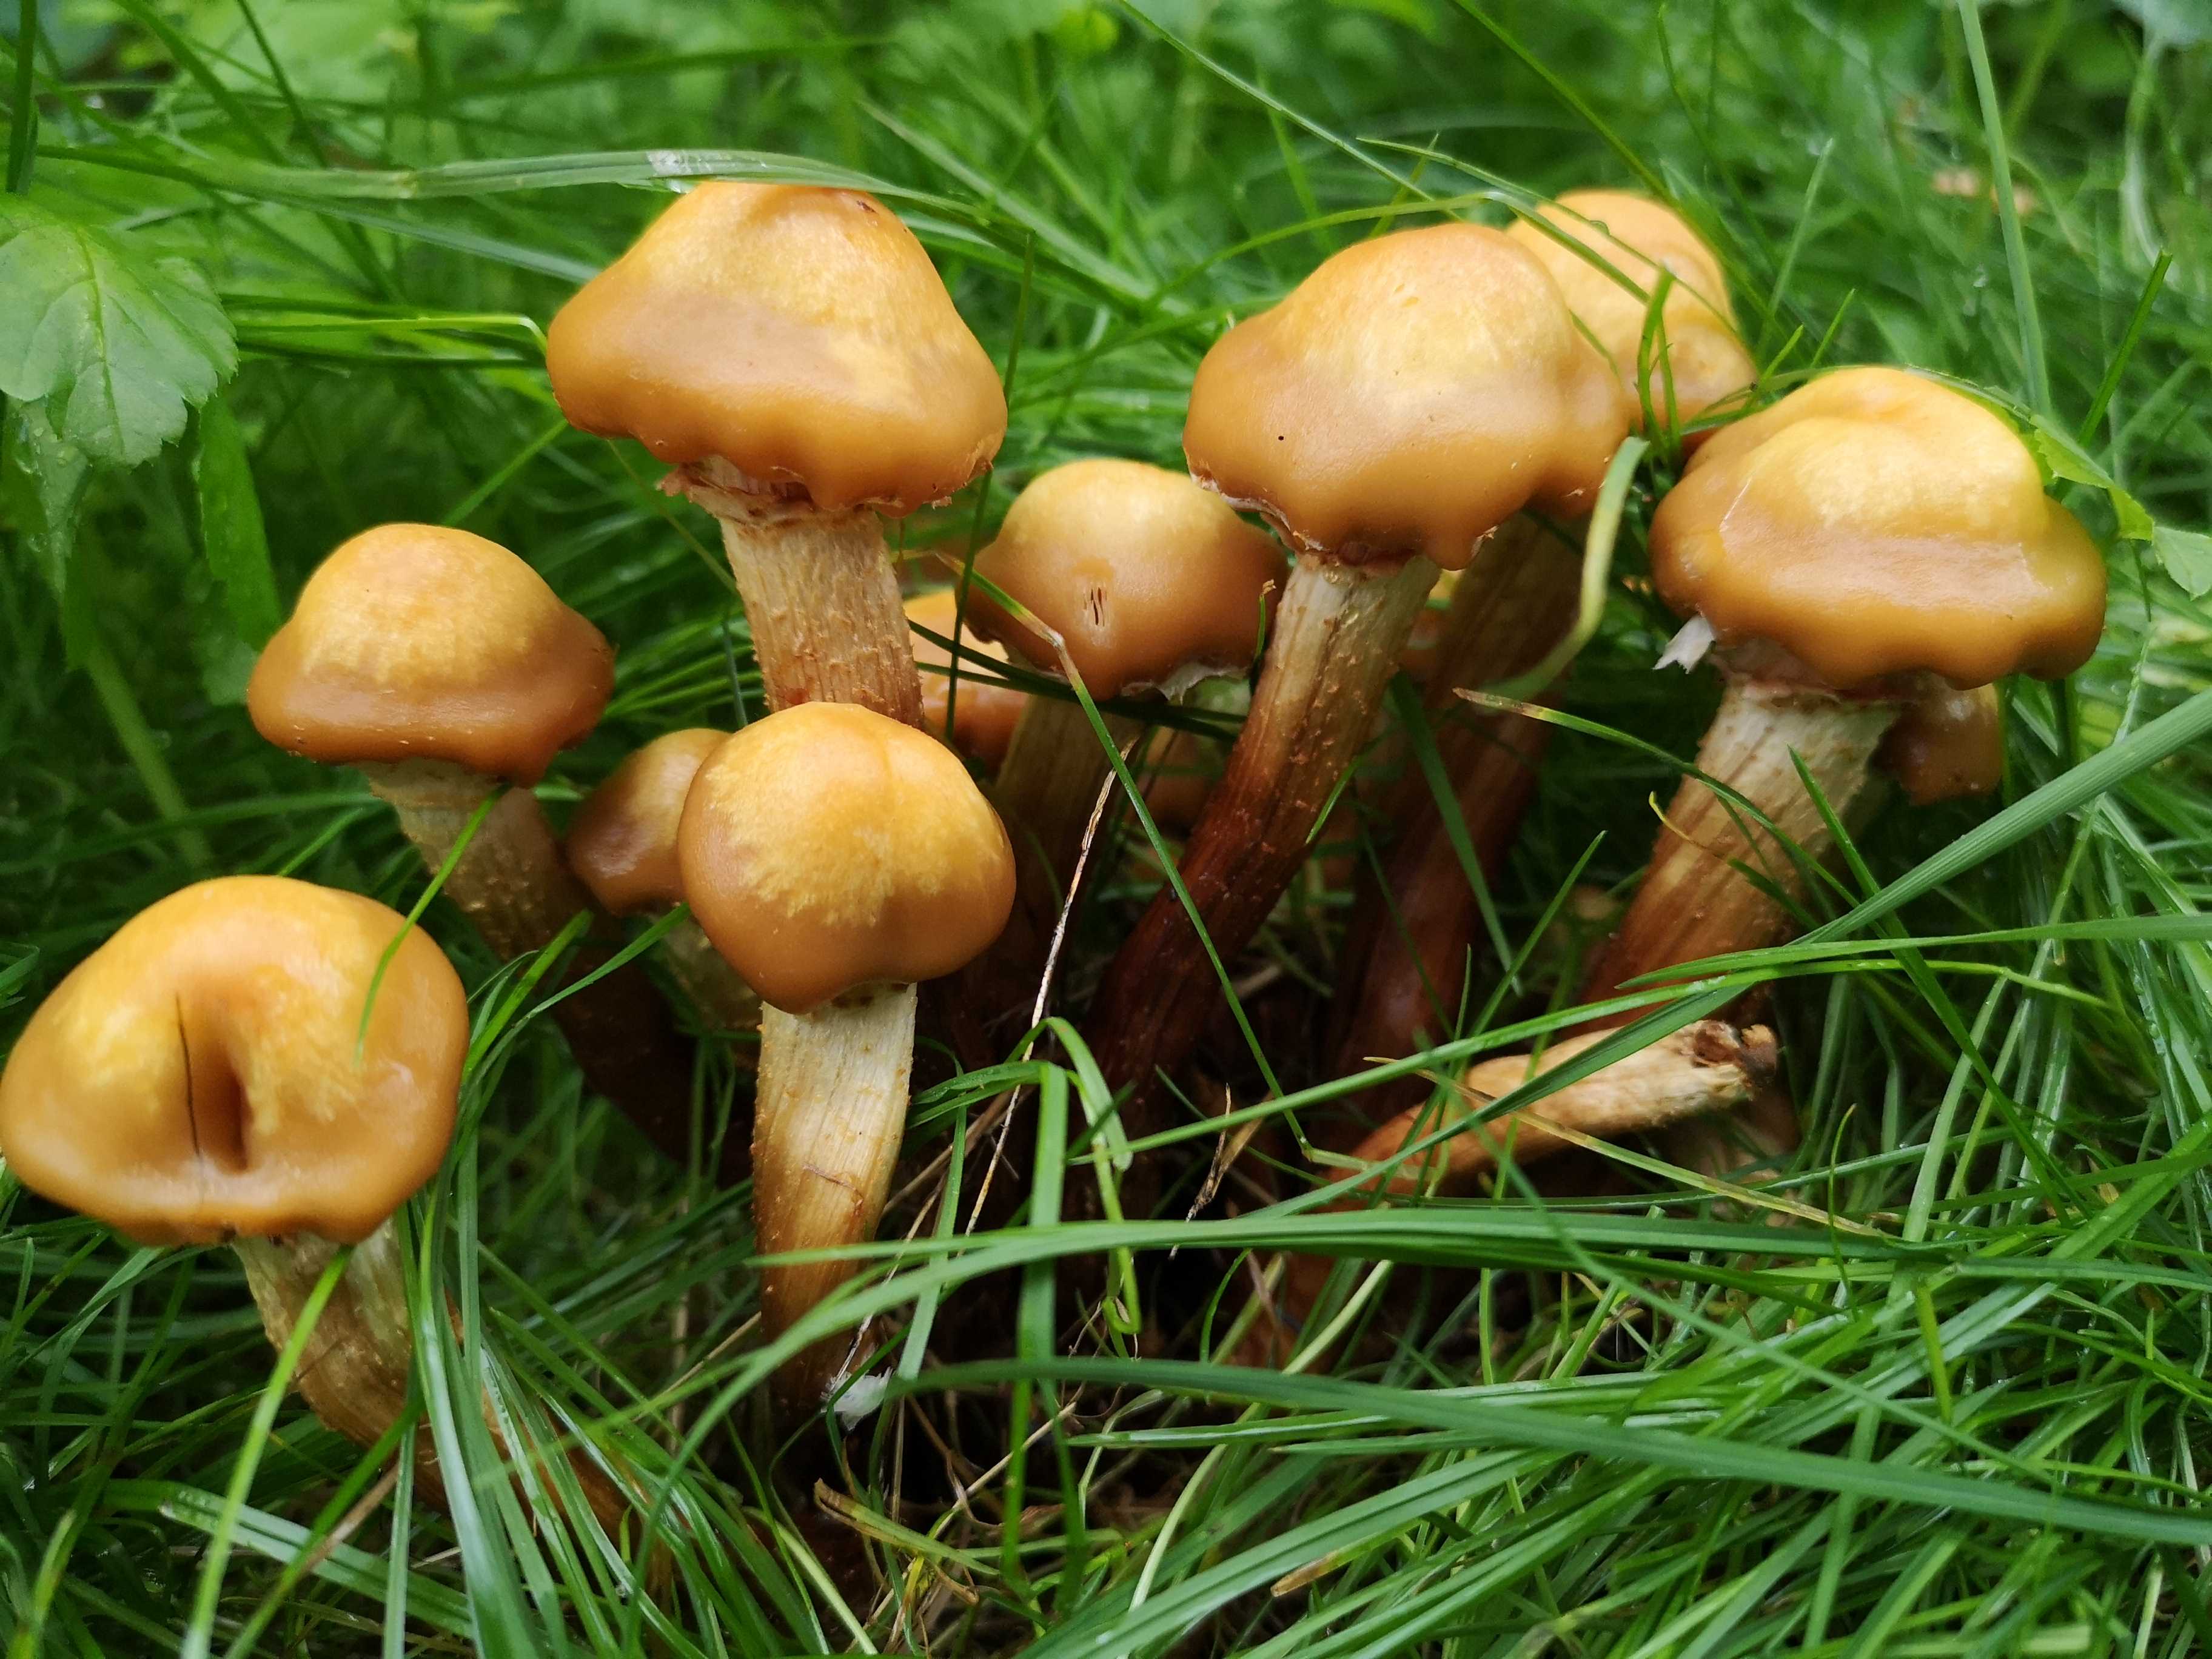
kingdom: Fungi
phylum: Basidiomycota
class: Agaricomycetes
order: Agaricales
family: Strophariaceae
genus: Kuehneromyces
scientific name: Kuehneromyces mutabilis
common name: foranderlig skælhat
